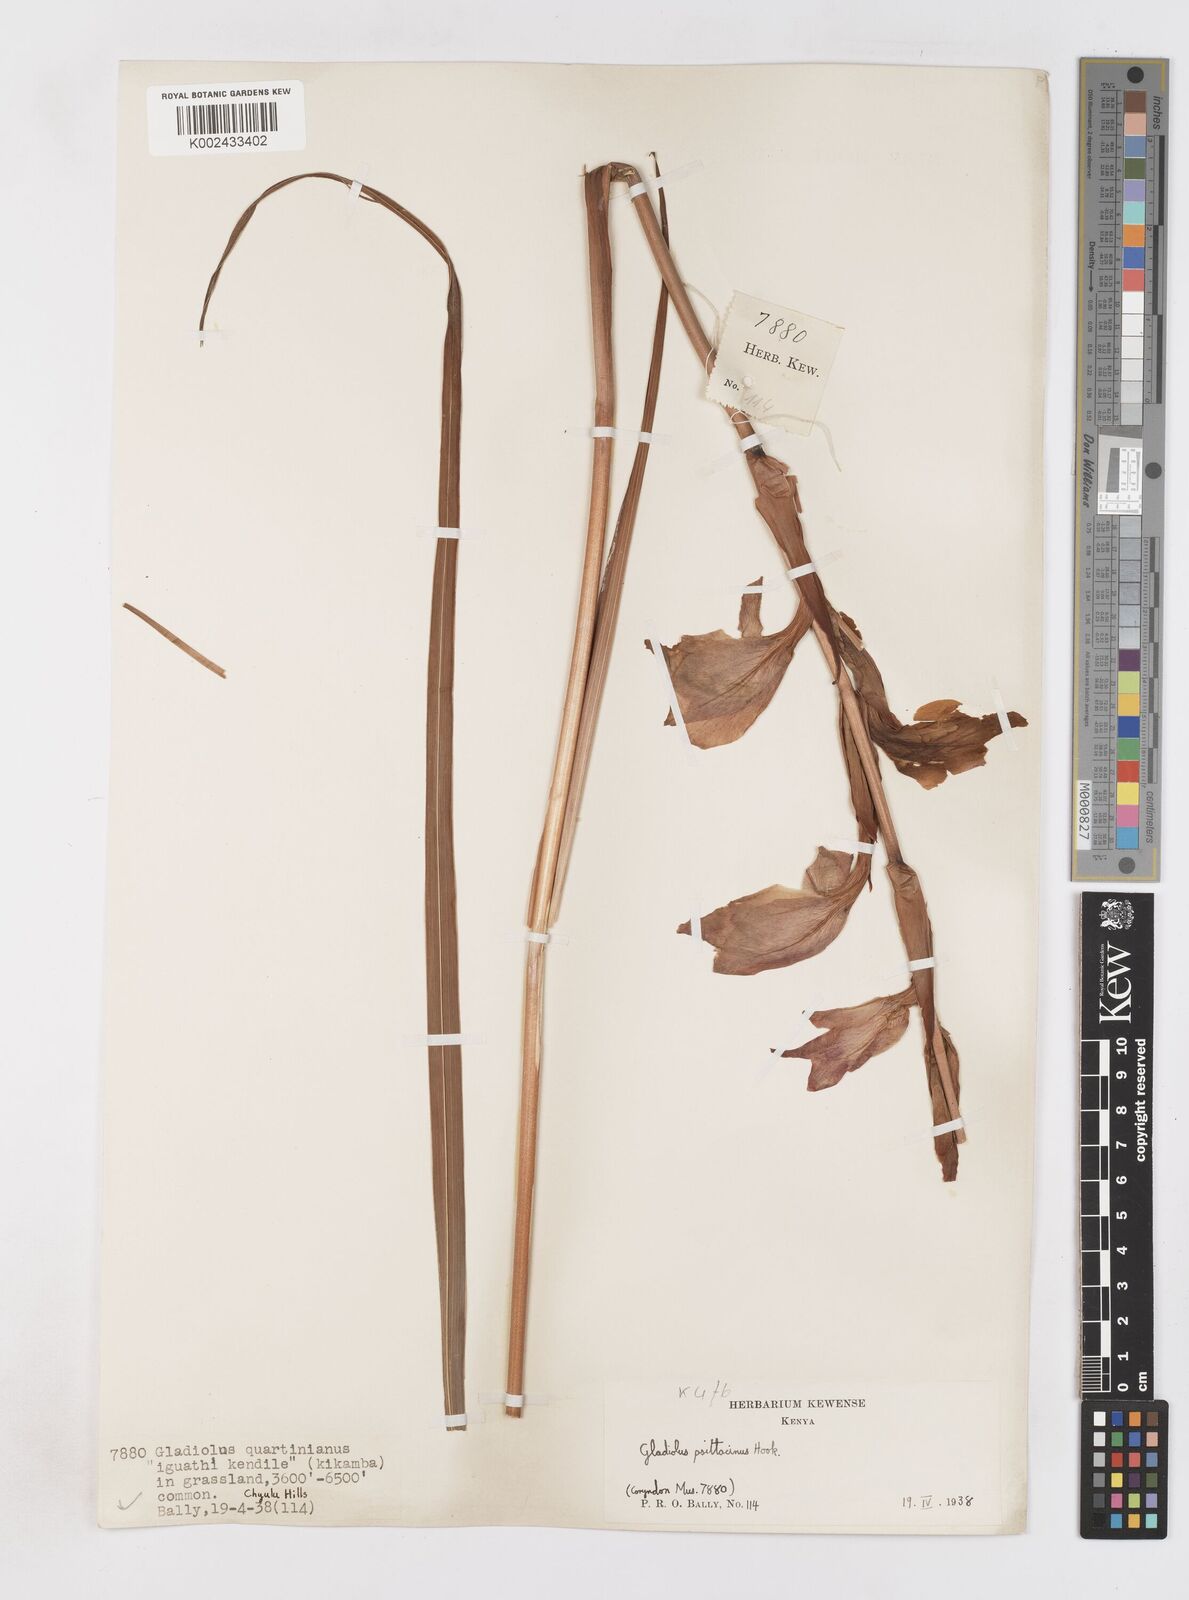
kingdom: Plantae
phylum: Tracheophyta
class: Liliopsida
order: Asparagales
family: Iridaceae
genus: Gladiolus
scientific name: Gladiolus dalenii
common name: Cornflag
